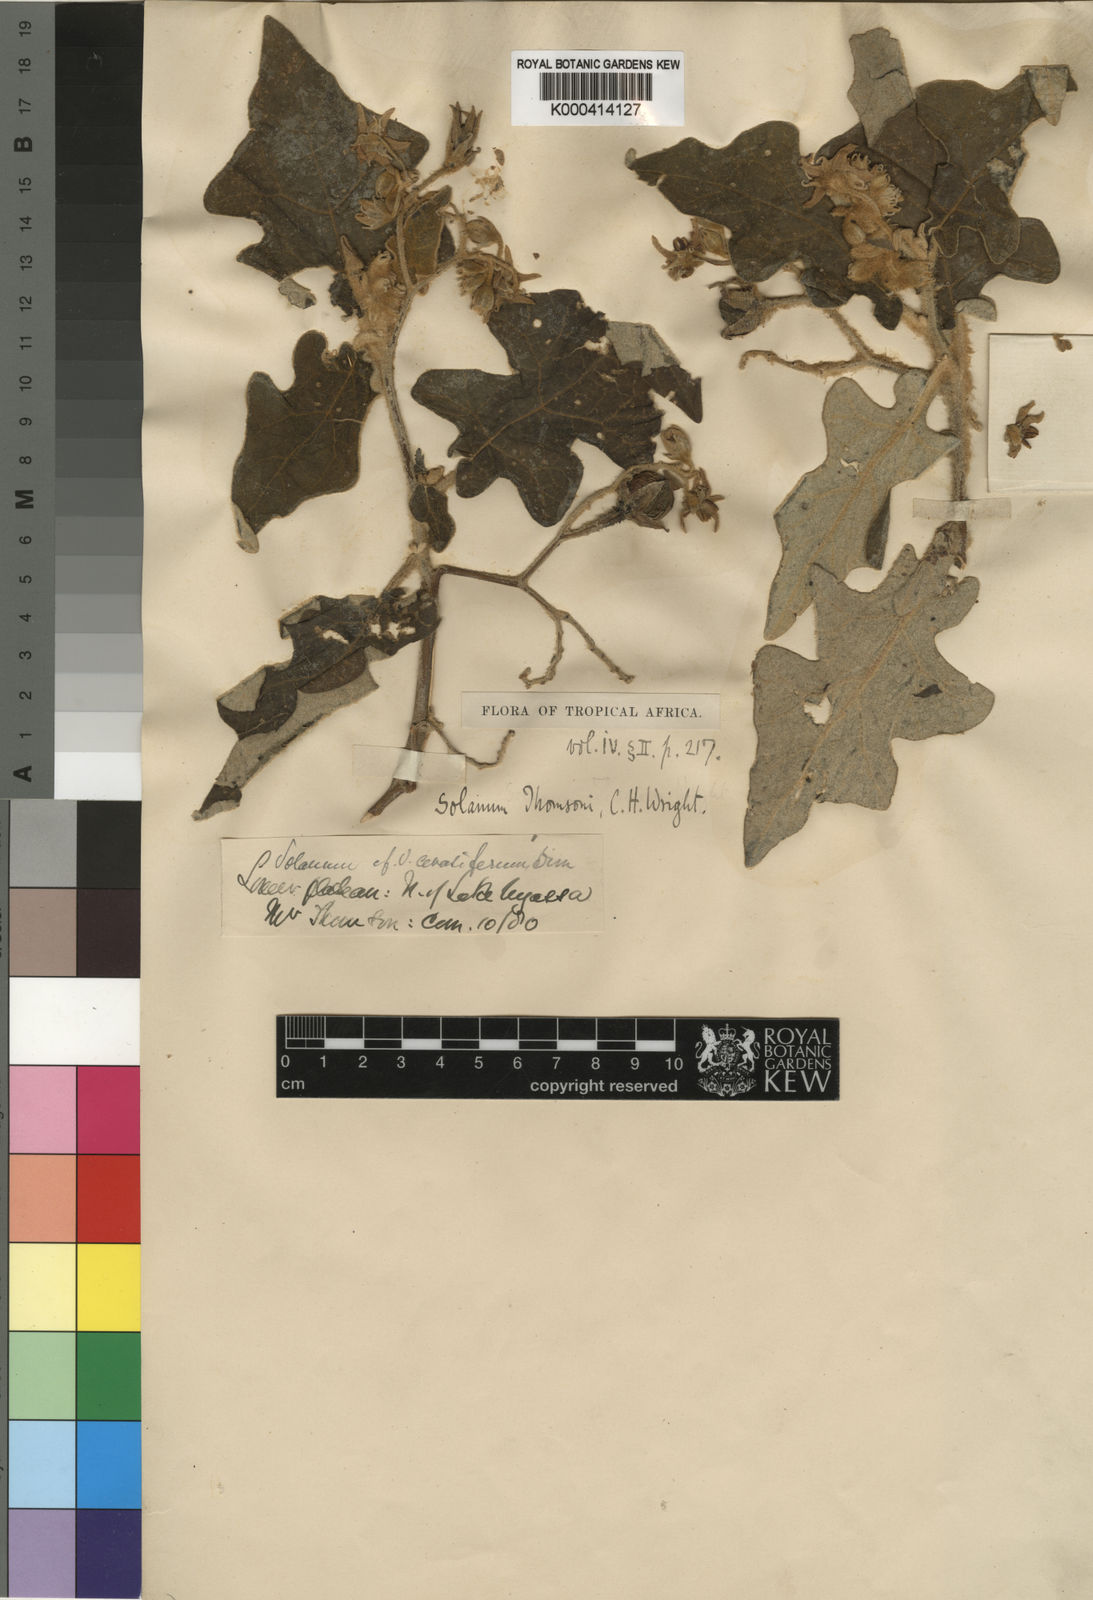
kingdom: Plantae
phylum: Tracheophyta
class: Magnoliopsida
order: Solanales
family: Solanaceae
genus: Solanum
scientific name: Solanum aculeastrum
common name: Goat bitter-apple
